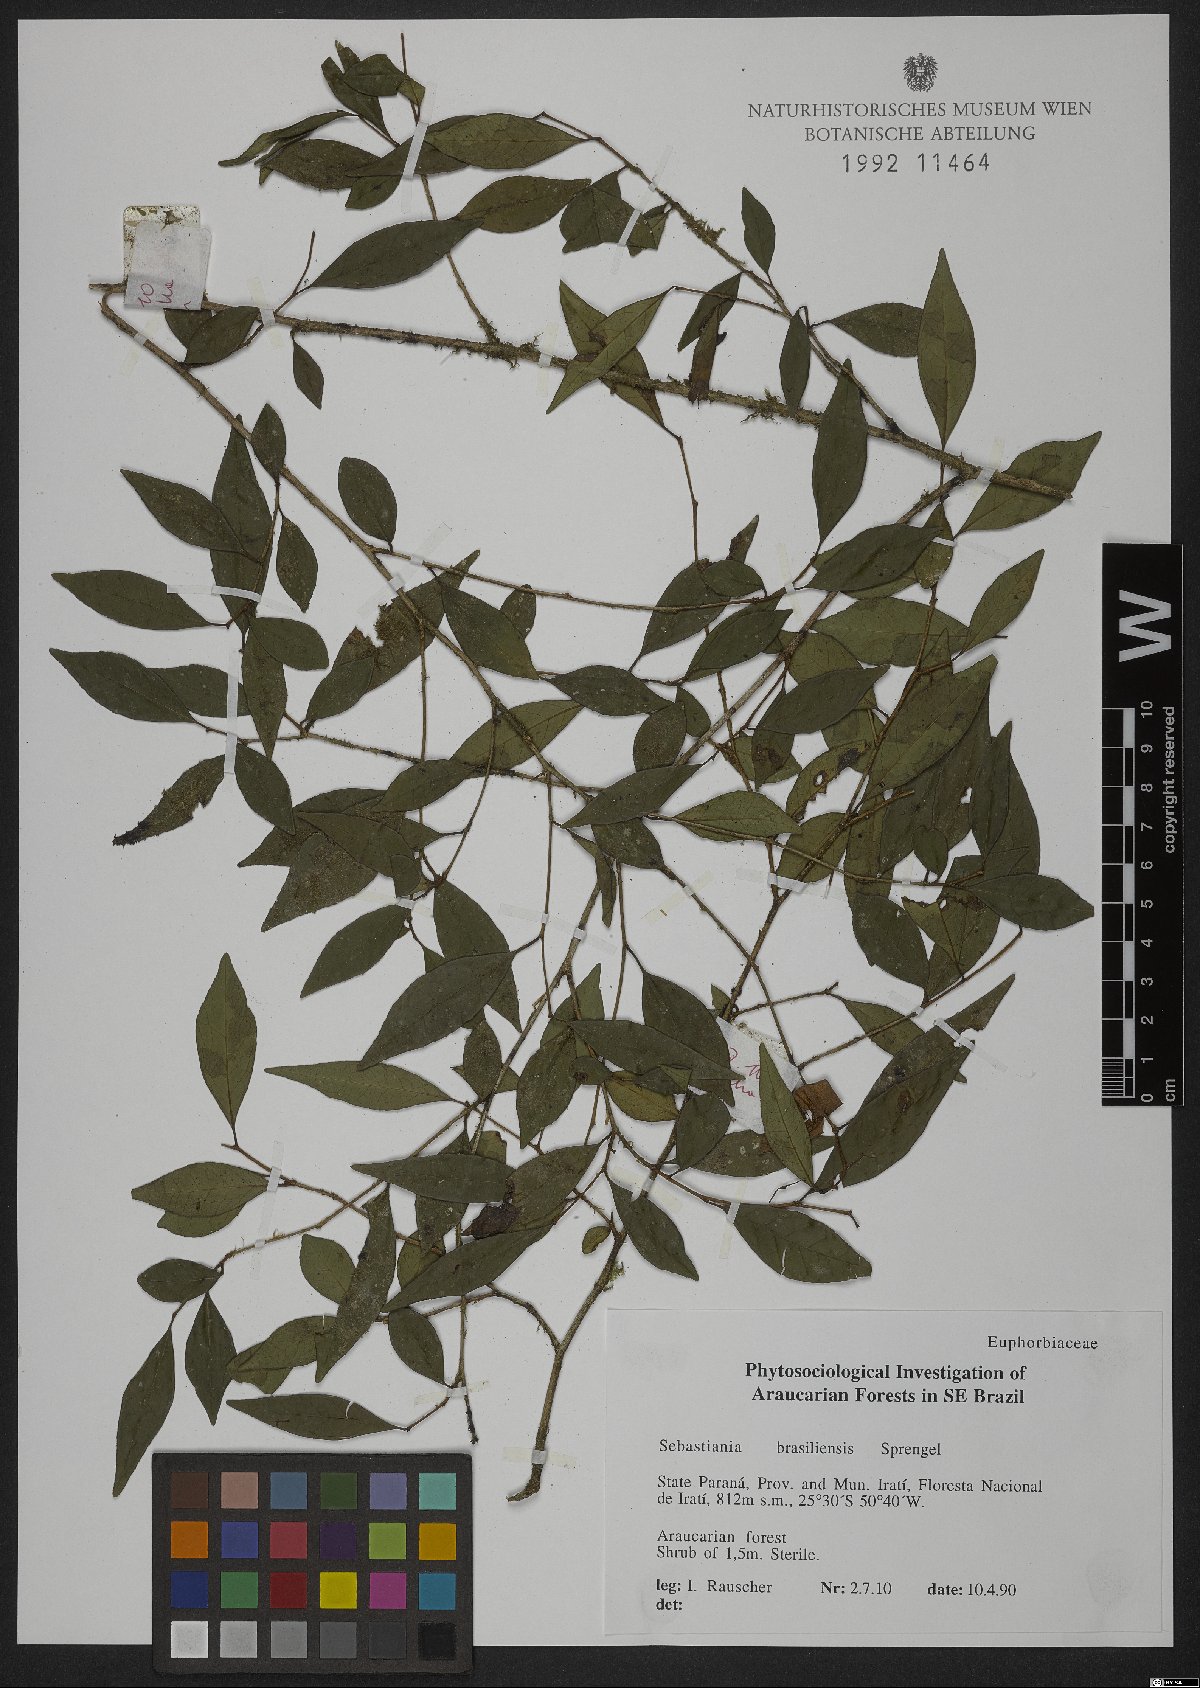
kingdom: Plantae
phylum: Tracheophyta
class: Magnoliopsida
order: Malpighiales
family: Euphorbiaceae
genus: Sebastiania
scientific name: Sebastiania brasiliensis
